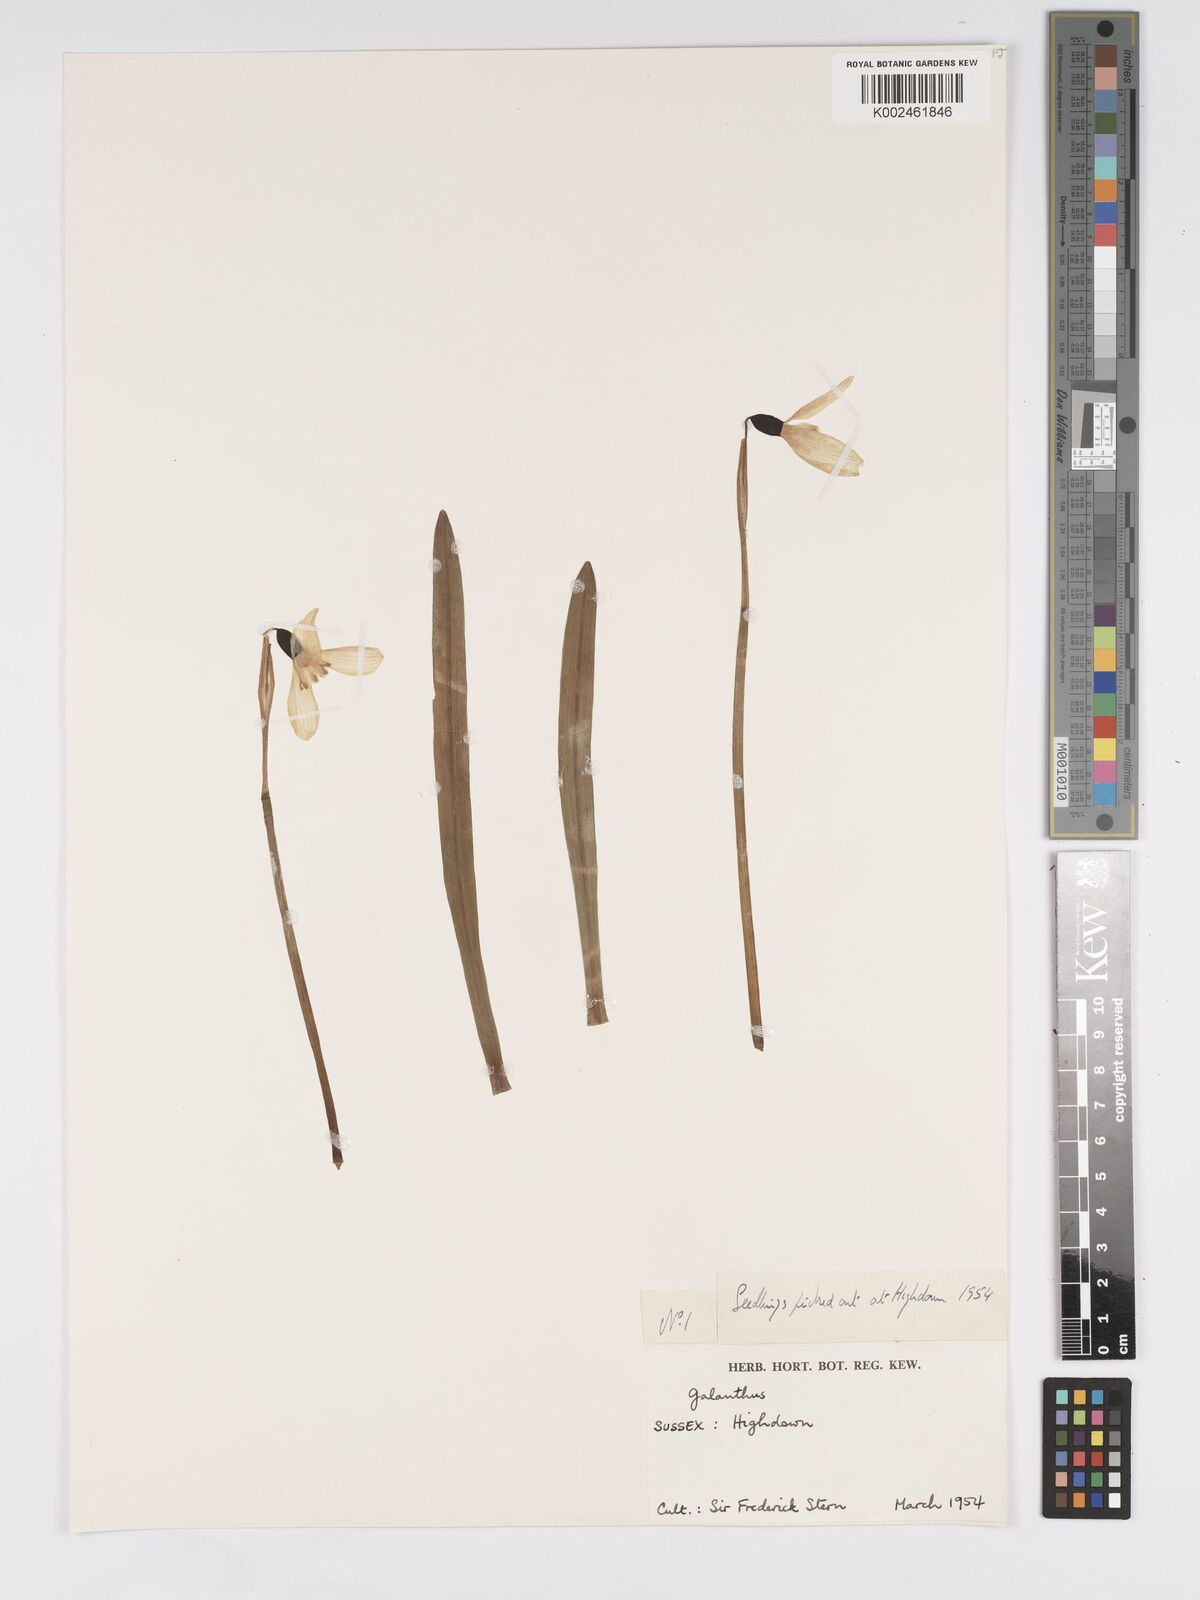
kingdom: Plantae
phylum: Tracheophyta
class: Liliopsida
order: Asparagales
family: Amaryllidaceae
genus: Galanthus
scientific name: Galanthus
